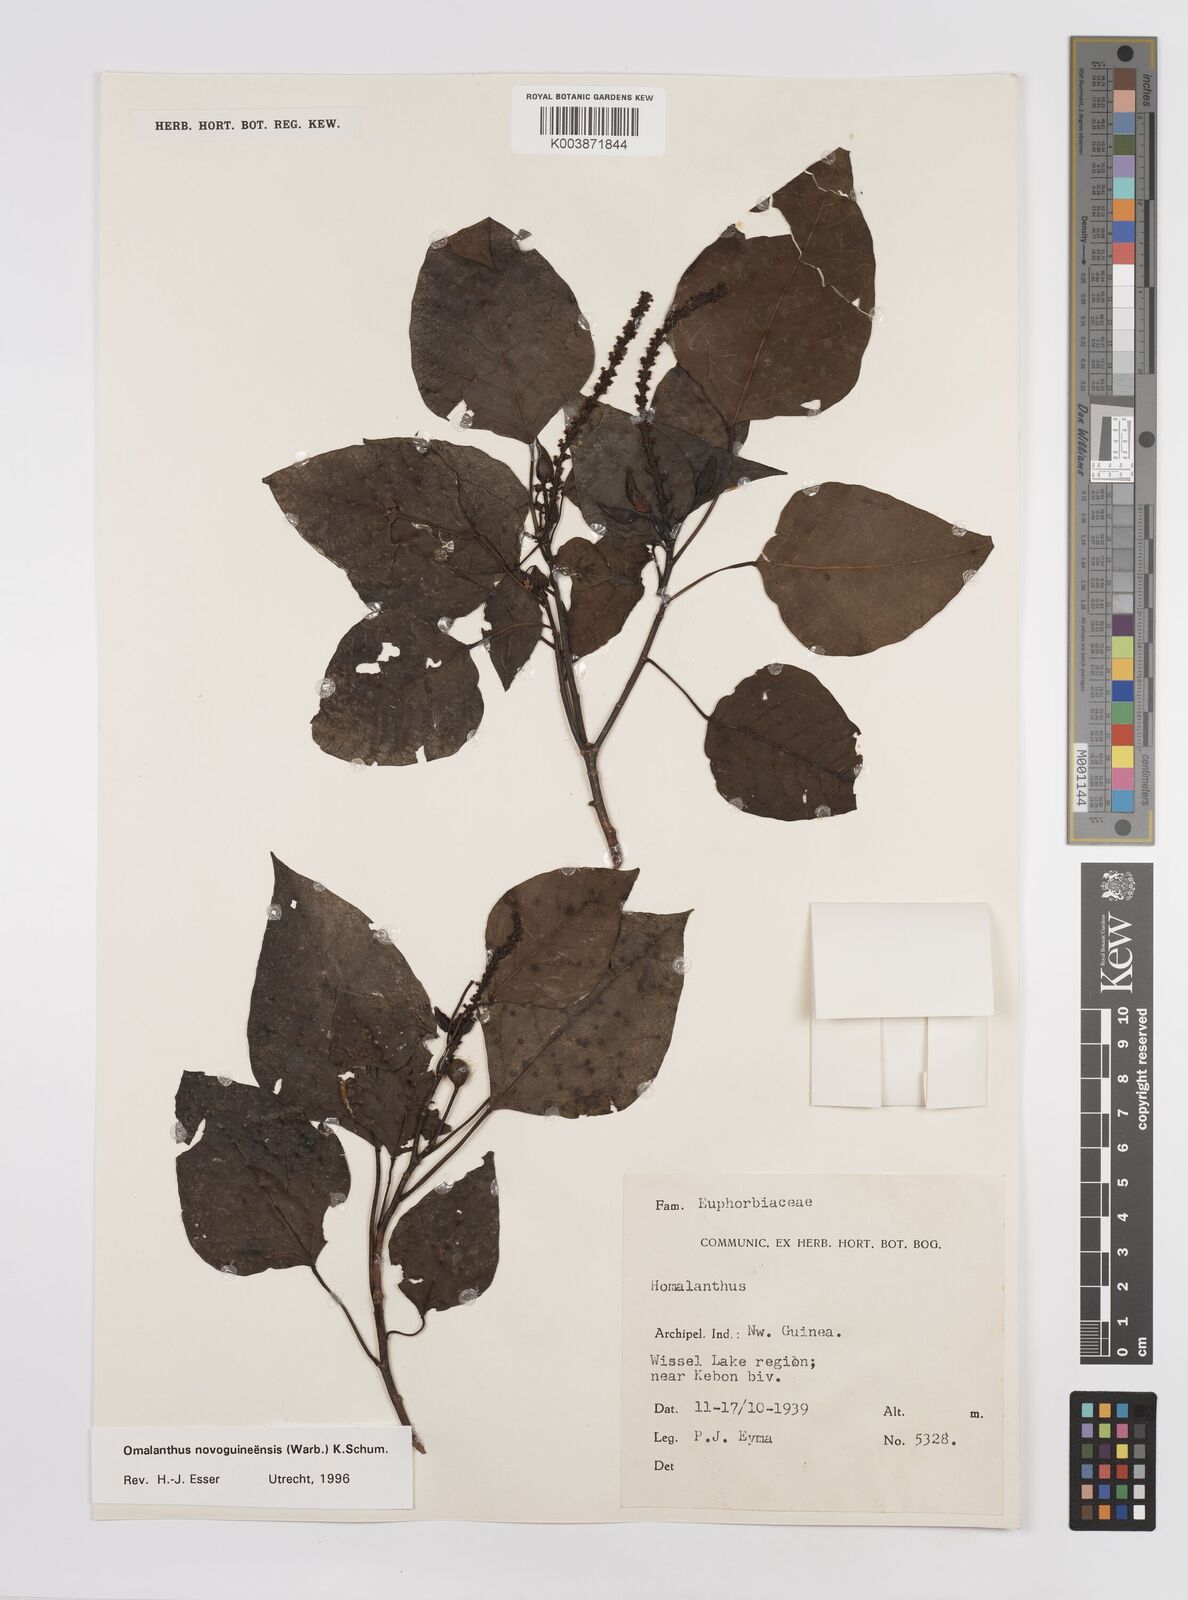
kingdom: Plantae
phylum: Tracheophyta
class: Magnoliopsida
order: Malpighiales
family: Euphorbiaceae
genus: Homalanthus
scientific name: Homalanthus novoguineensis
